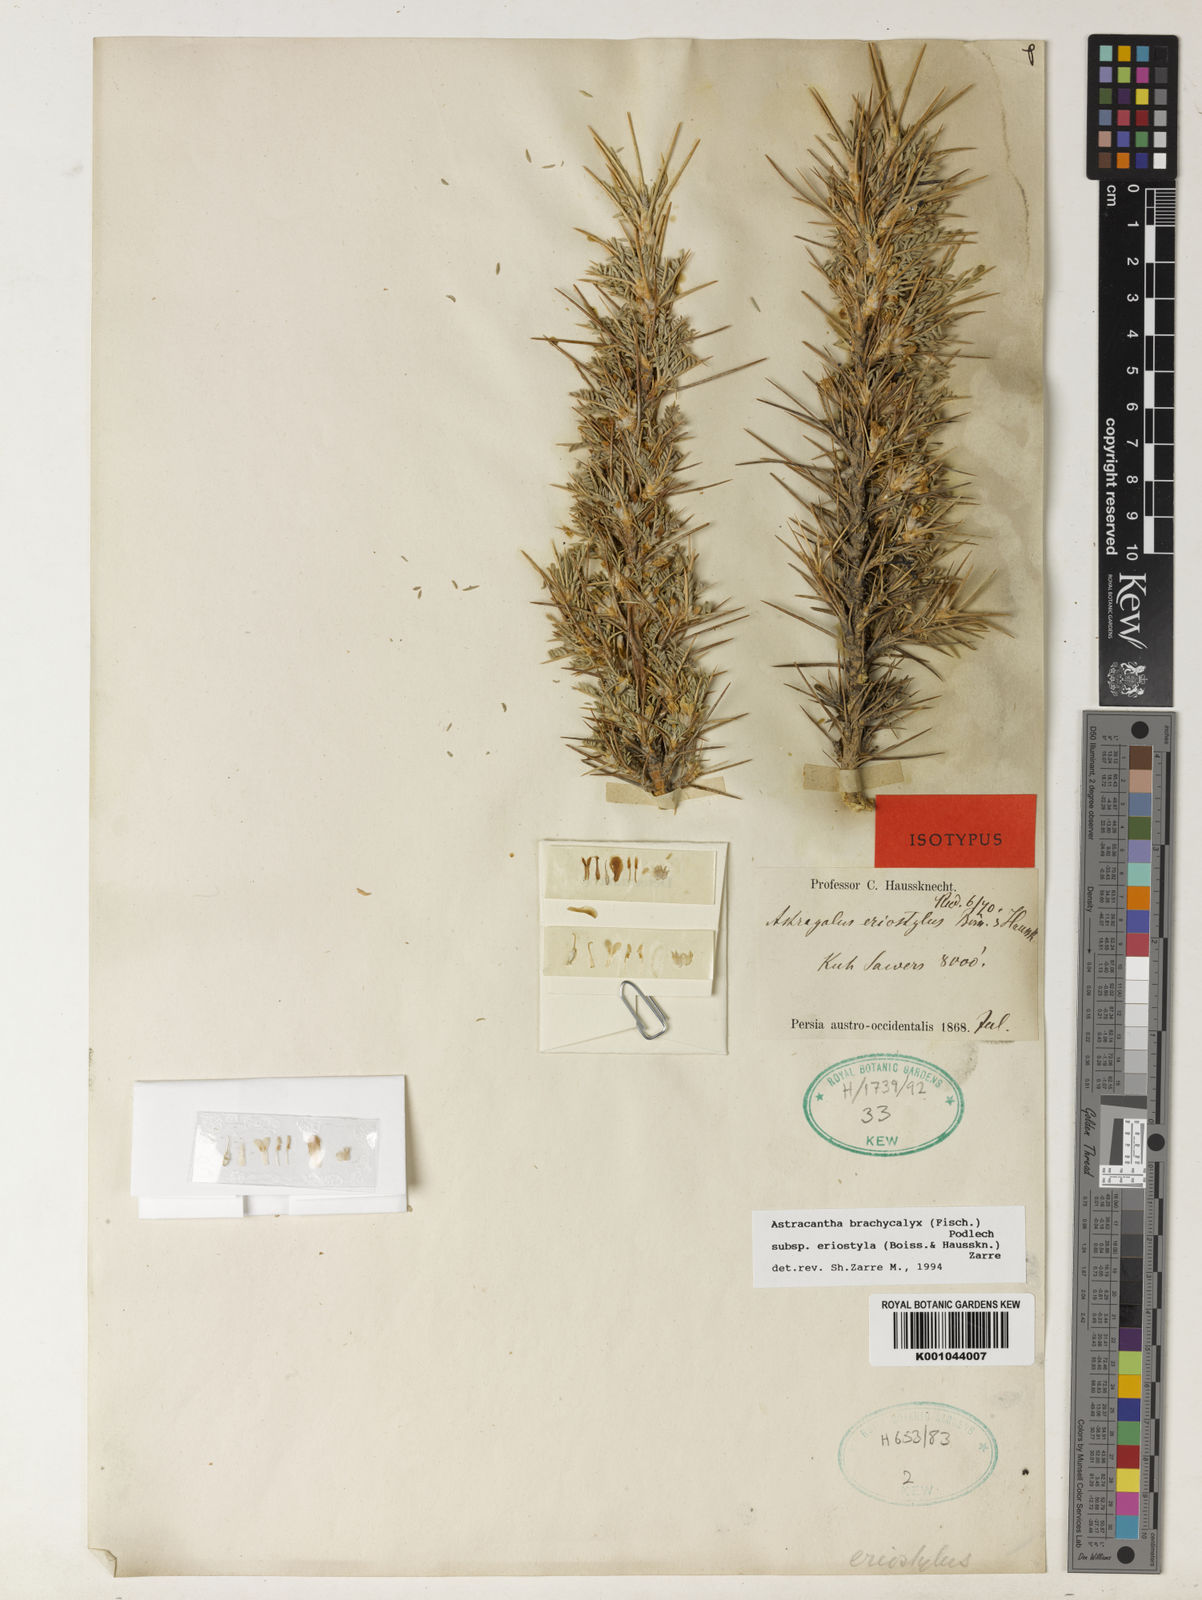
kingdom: Plantae
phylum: Tracheophyta
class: Magnoliopsida
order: Fabales
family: Fabaceae
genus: Astragalus
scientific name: Astragalus brachycalyx
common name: Persian manna
